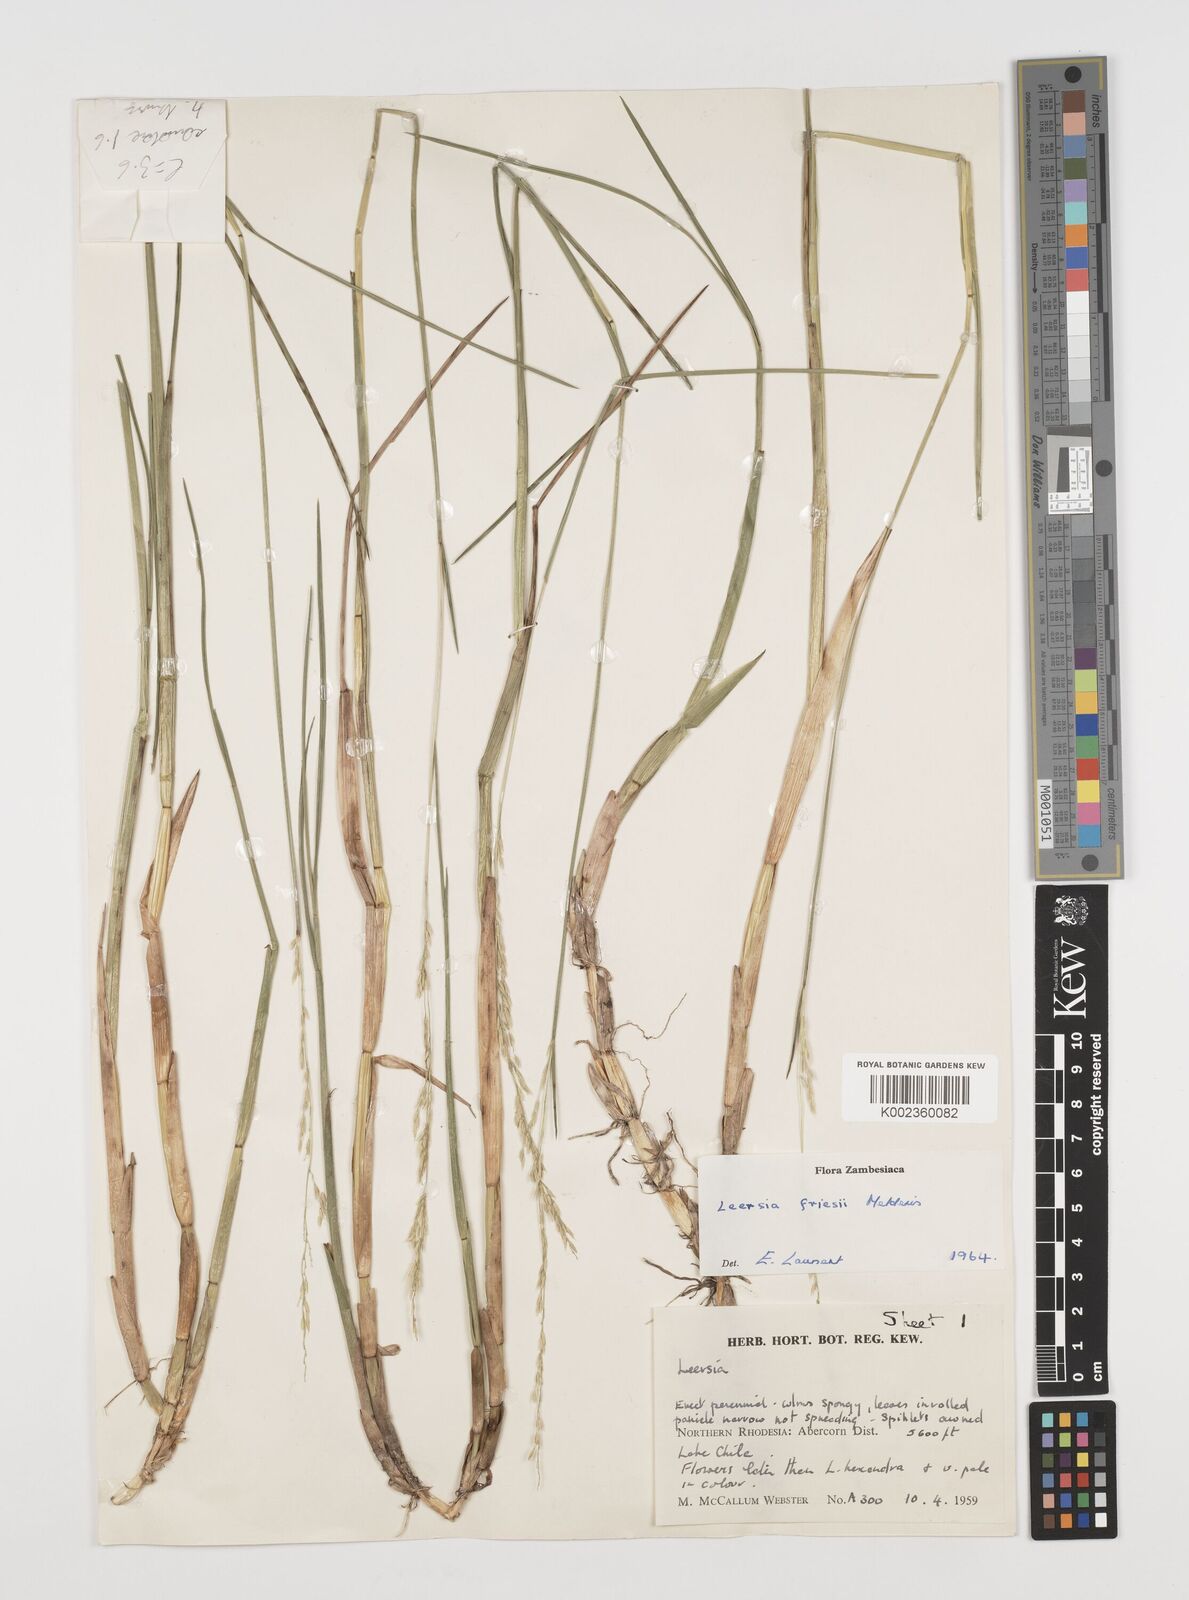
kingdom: Plantae
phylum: Tracheophyta
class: Liliopsida
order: Poales
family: Poaceae
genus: Leersia
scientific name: Leersia friesii
